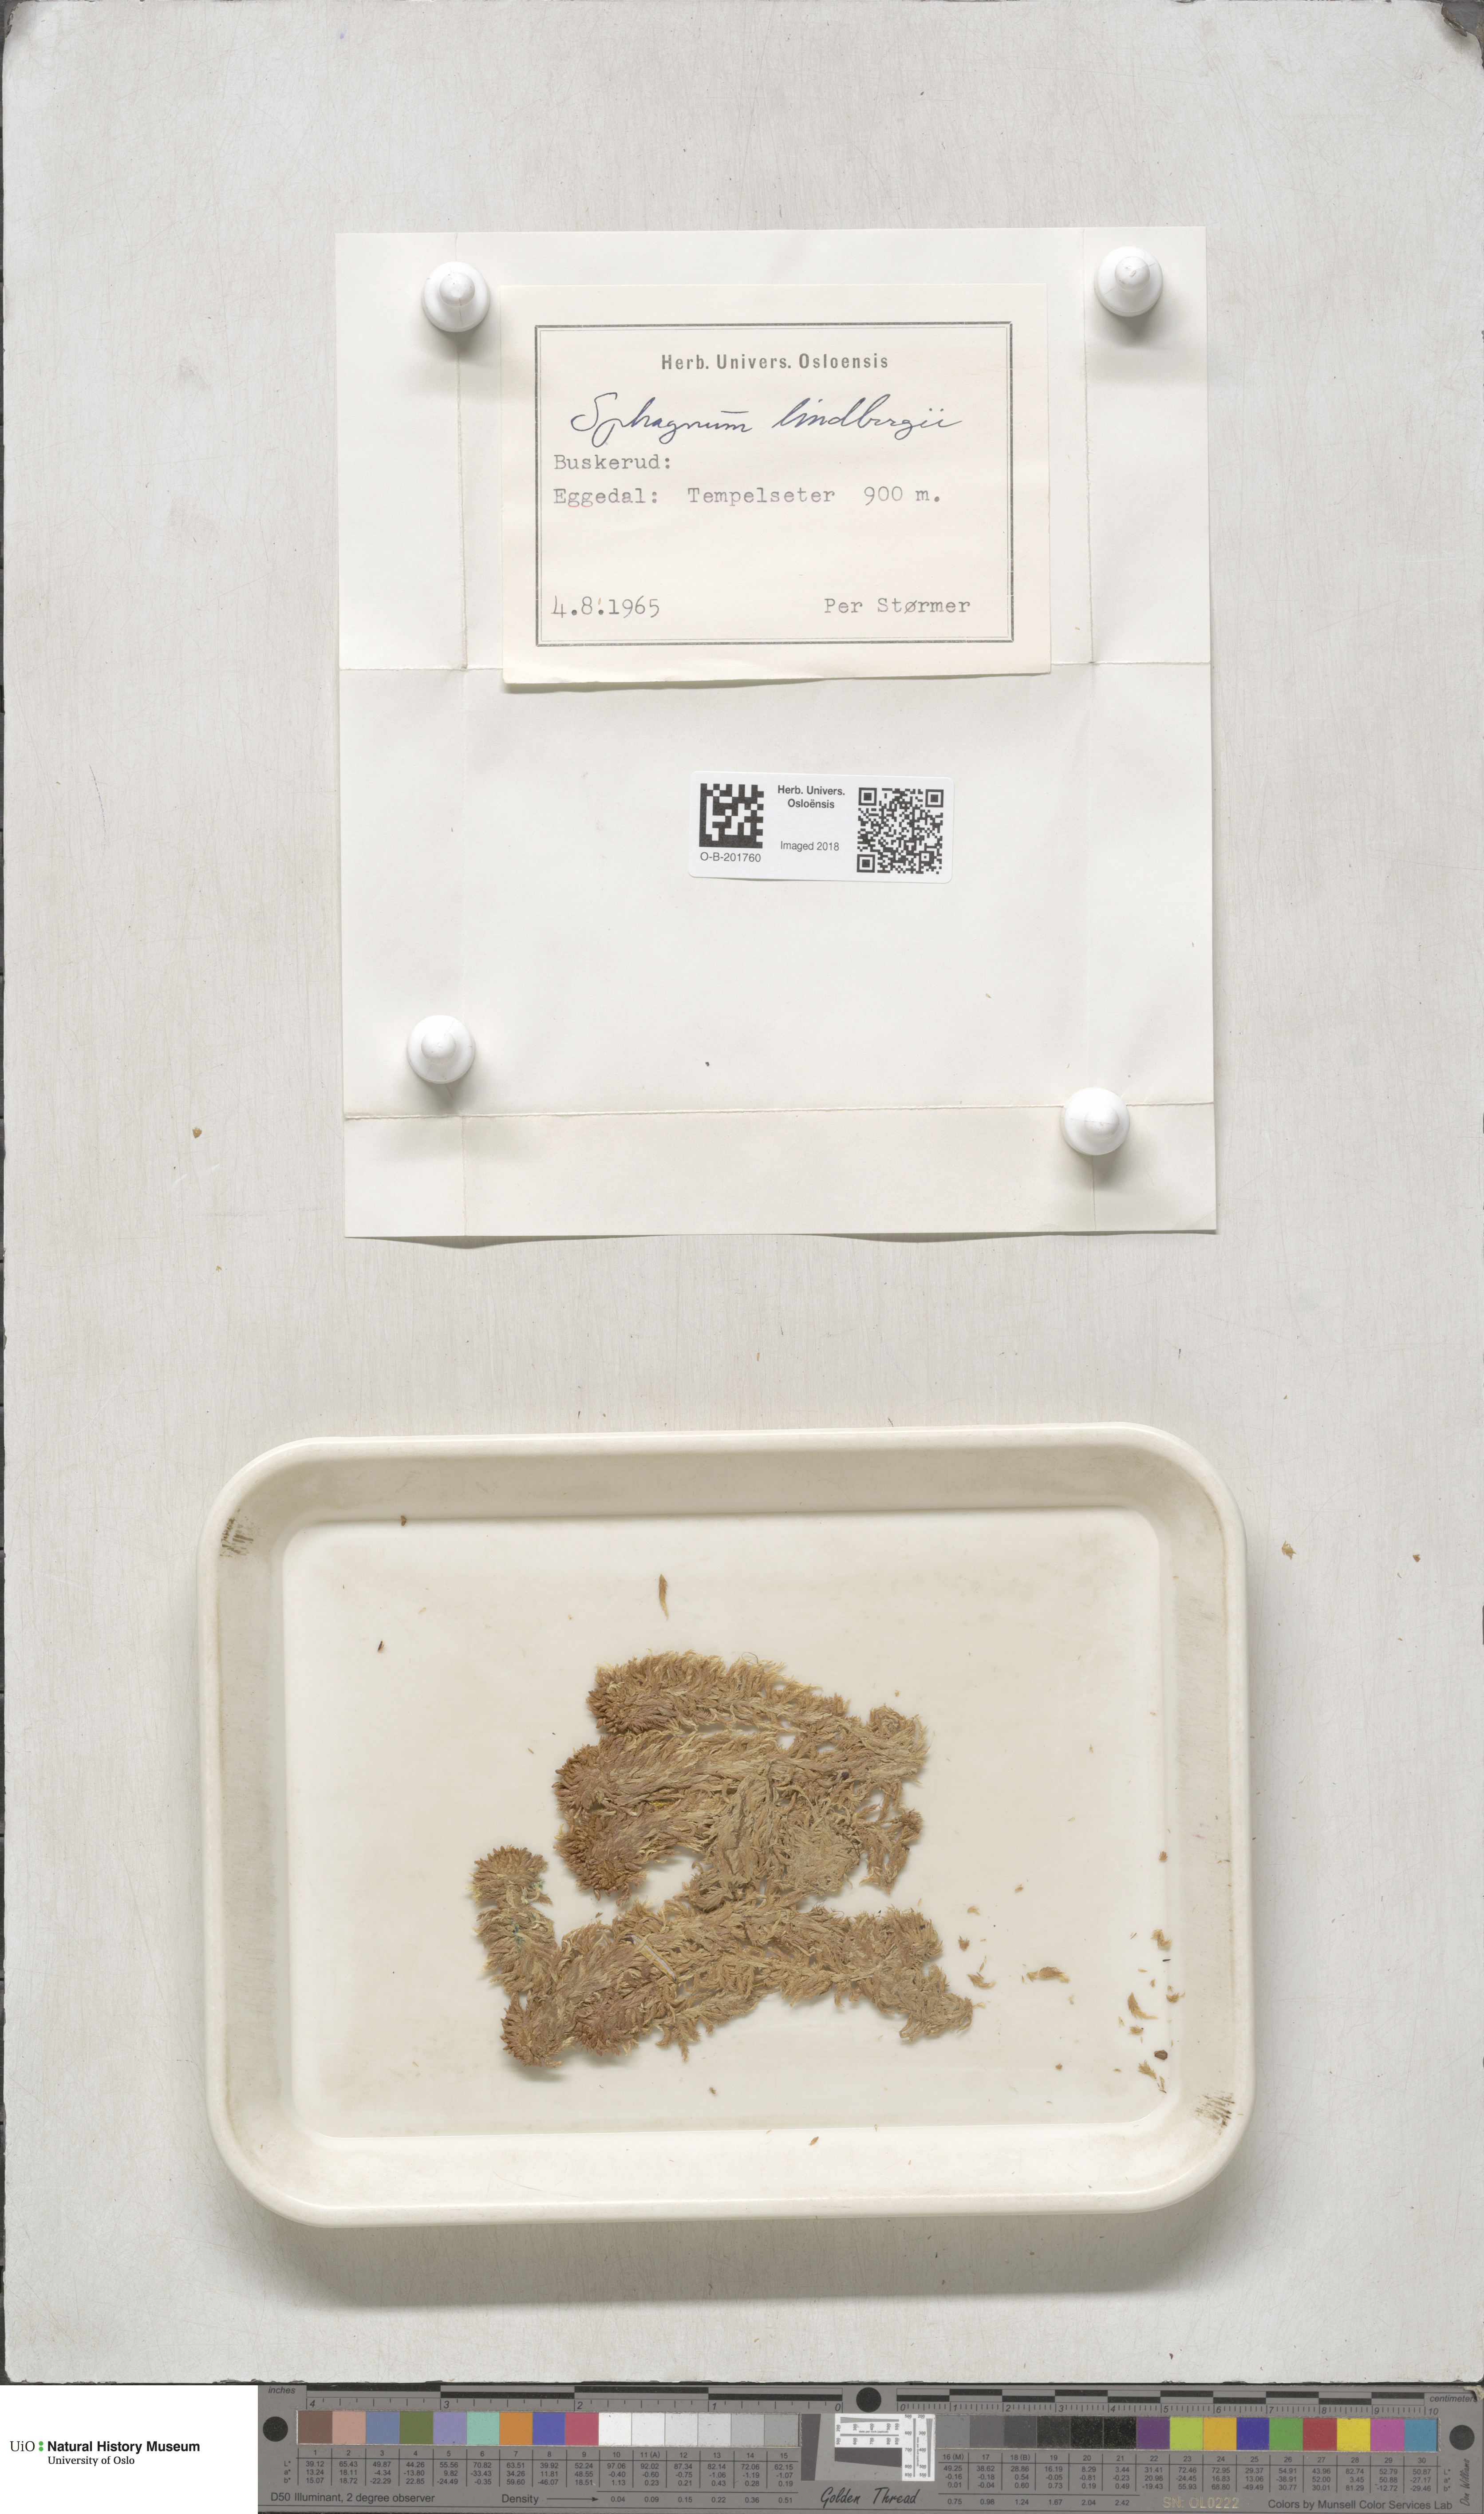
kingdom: Plantae
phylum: Bryophyta
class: Sphagnopsida
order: Sphagnales
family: Sphagnaceae
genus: Sphagnum
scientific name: Sphagnum lindbergii
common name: Lindberg's peat moss
